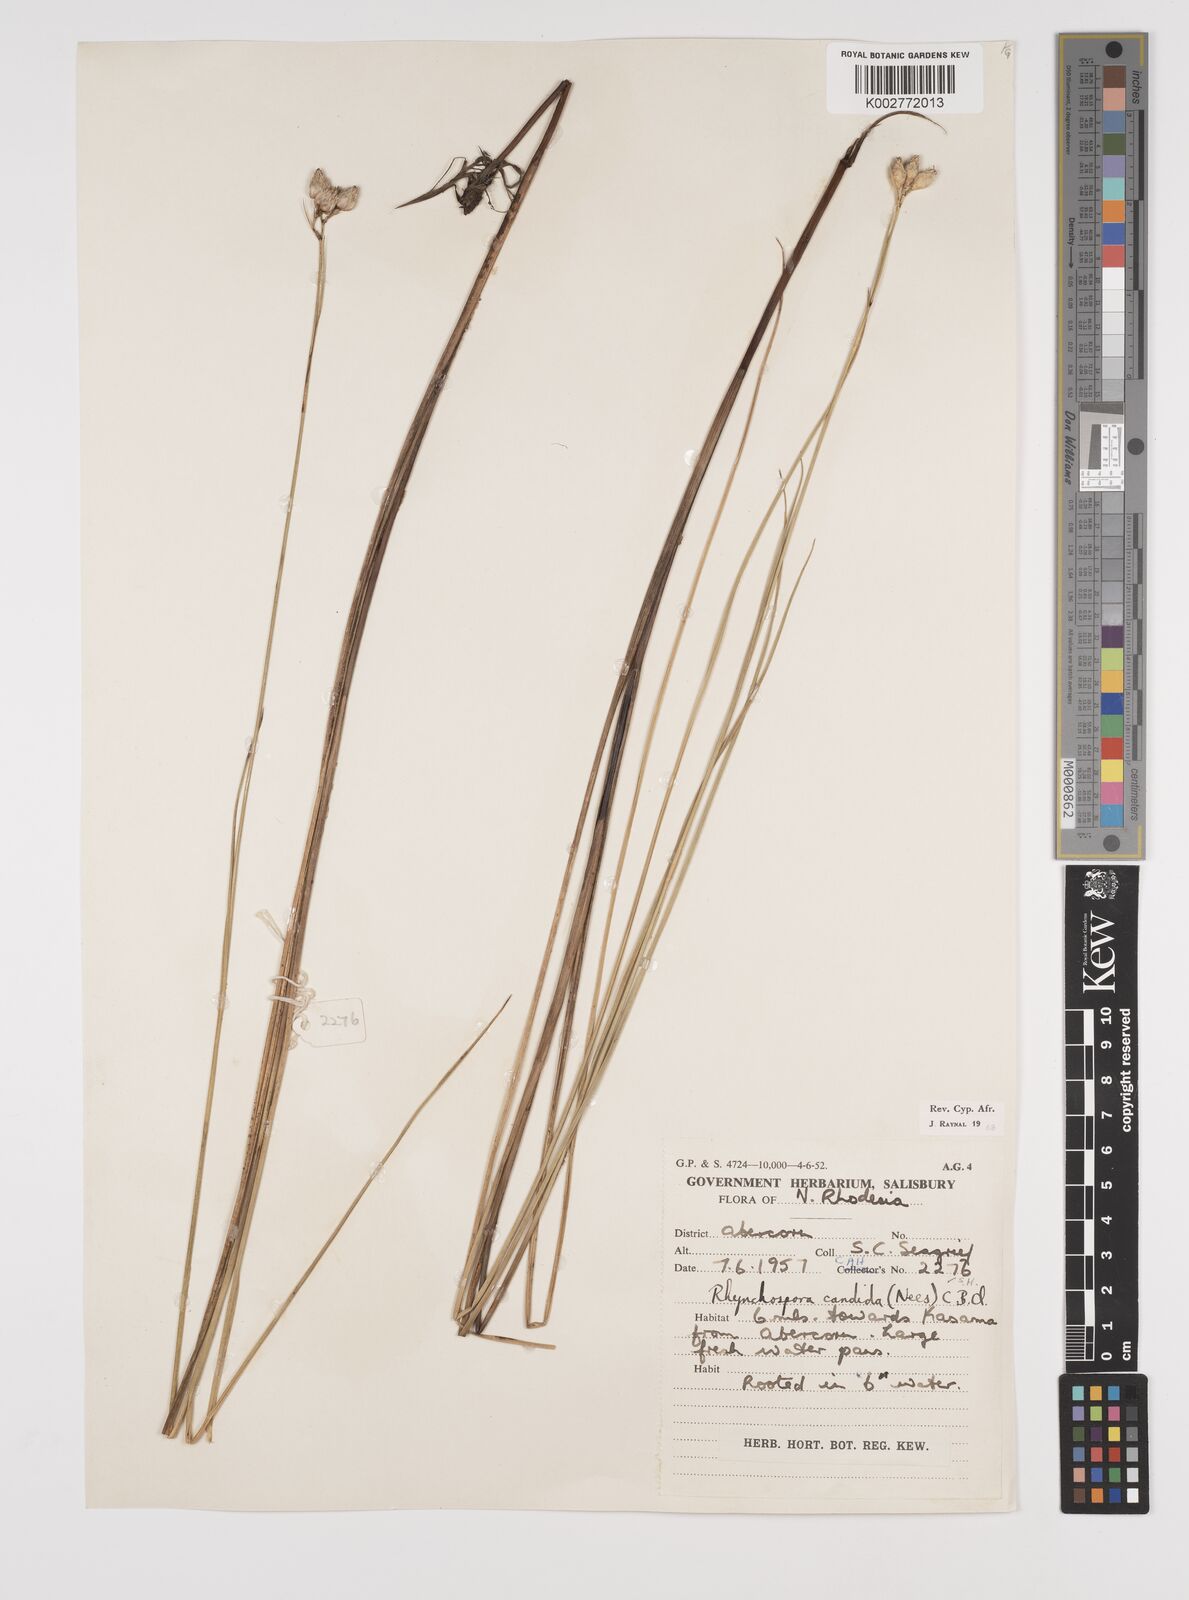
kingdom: Plantae
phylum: Tracheophyta
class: Liliopsida
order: Poales
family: Cyperaceae
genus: Rhynchospora
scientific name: Rhynchospora candida
